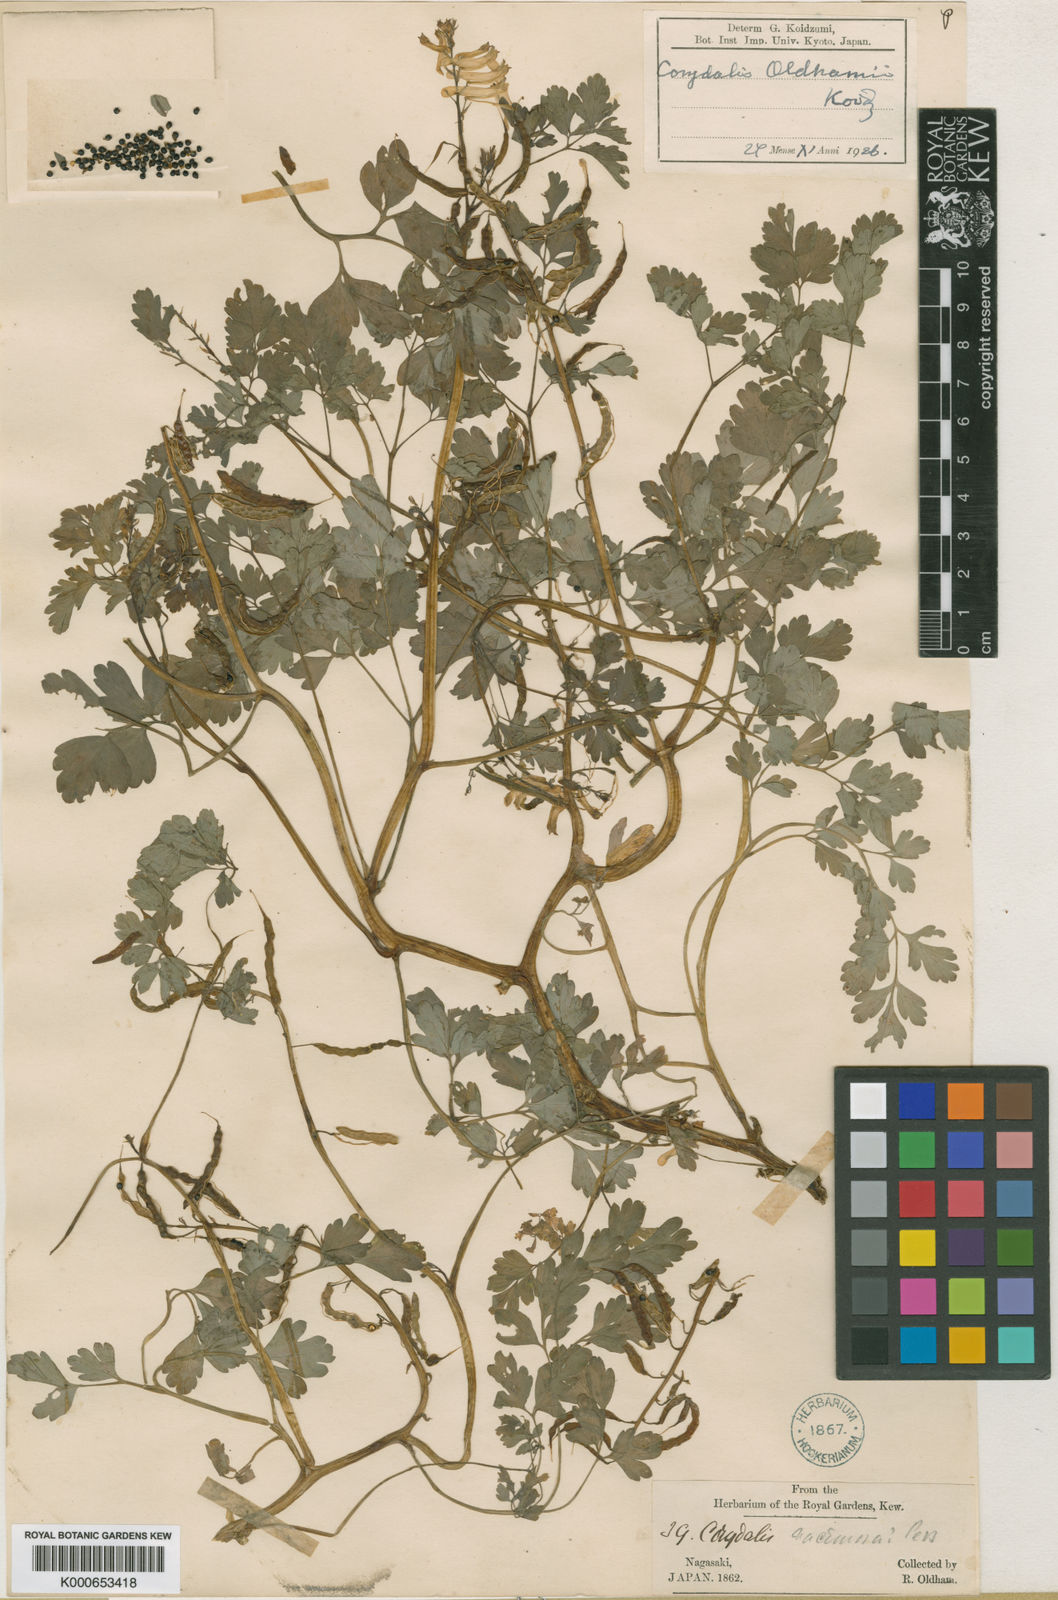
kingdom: Plantae
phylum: Tracheophyta
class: Magnoliopsida
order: Ranunculales
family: Papaveraceae
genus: Corydalis
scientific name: Corydalis heterocarpa
